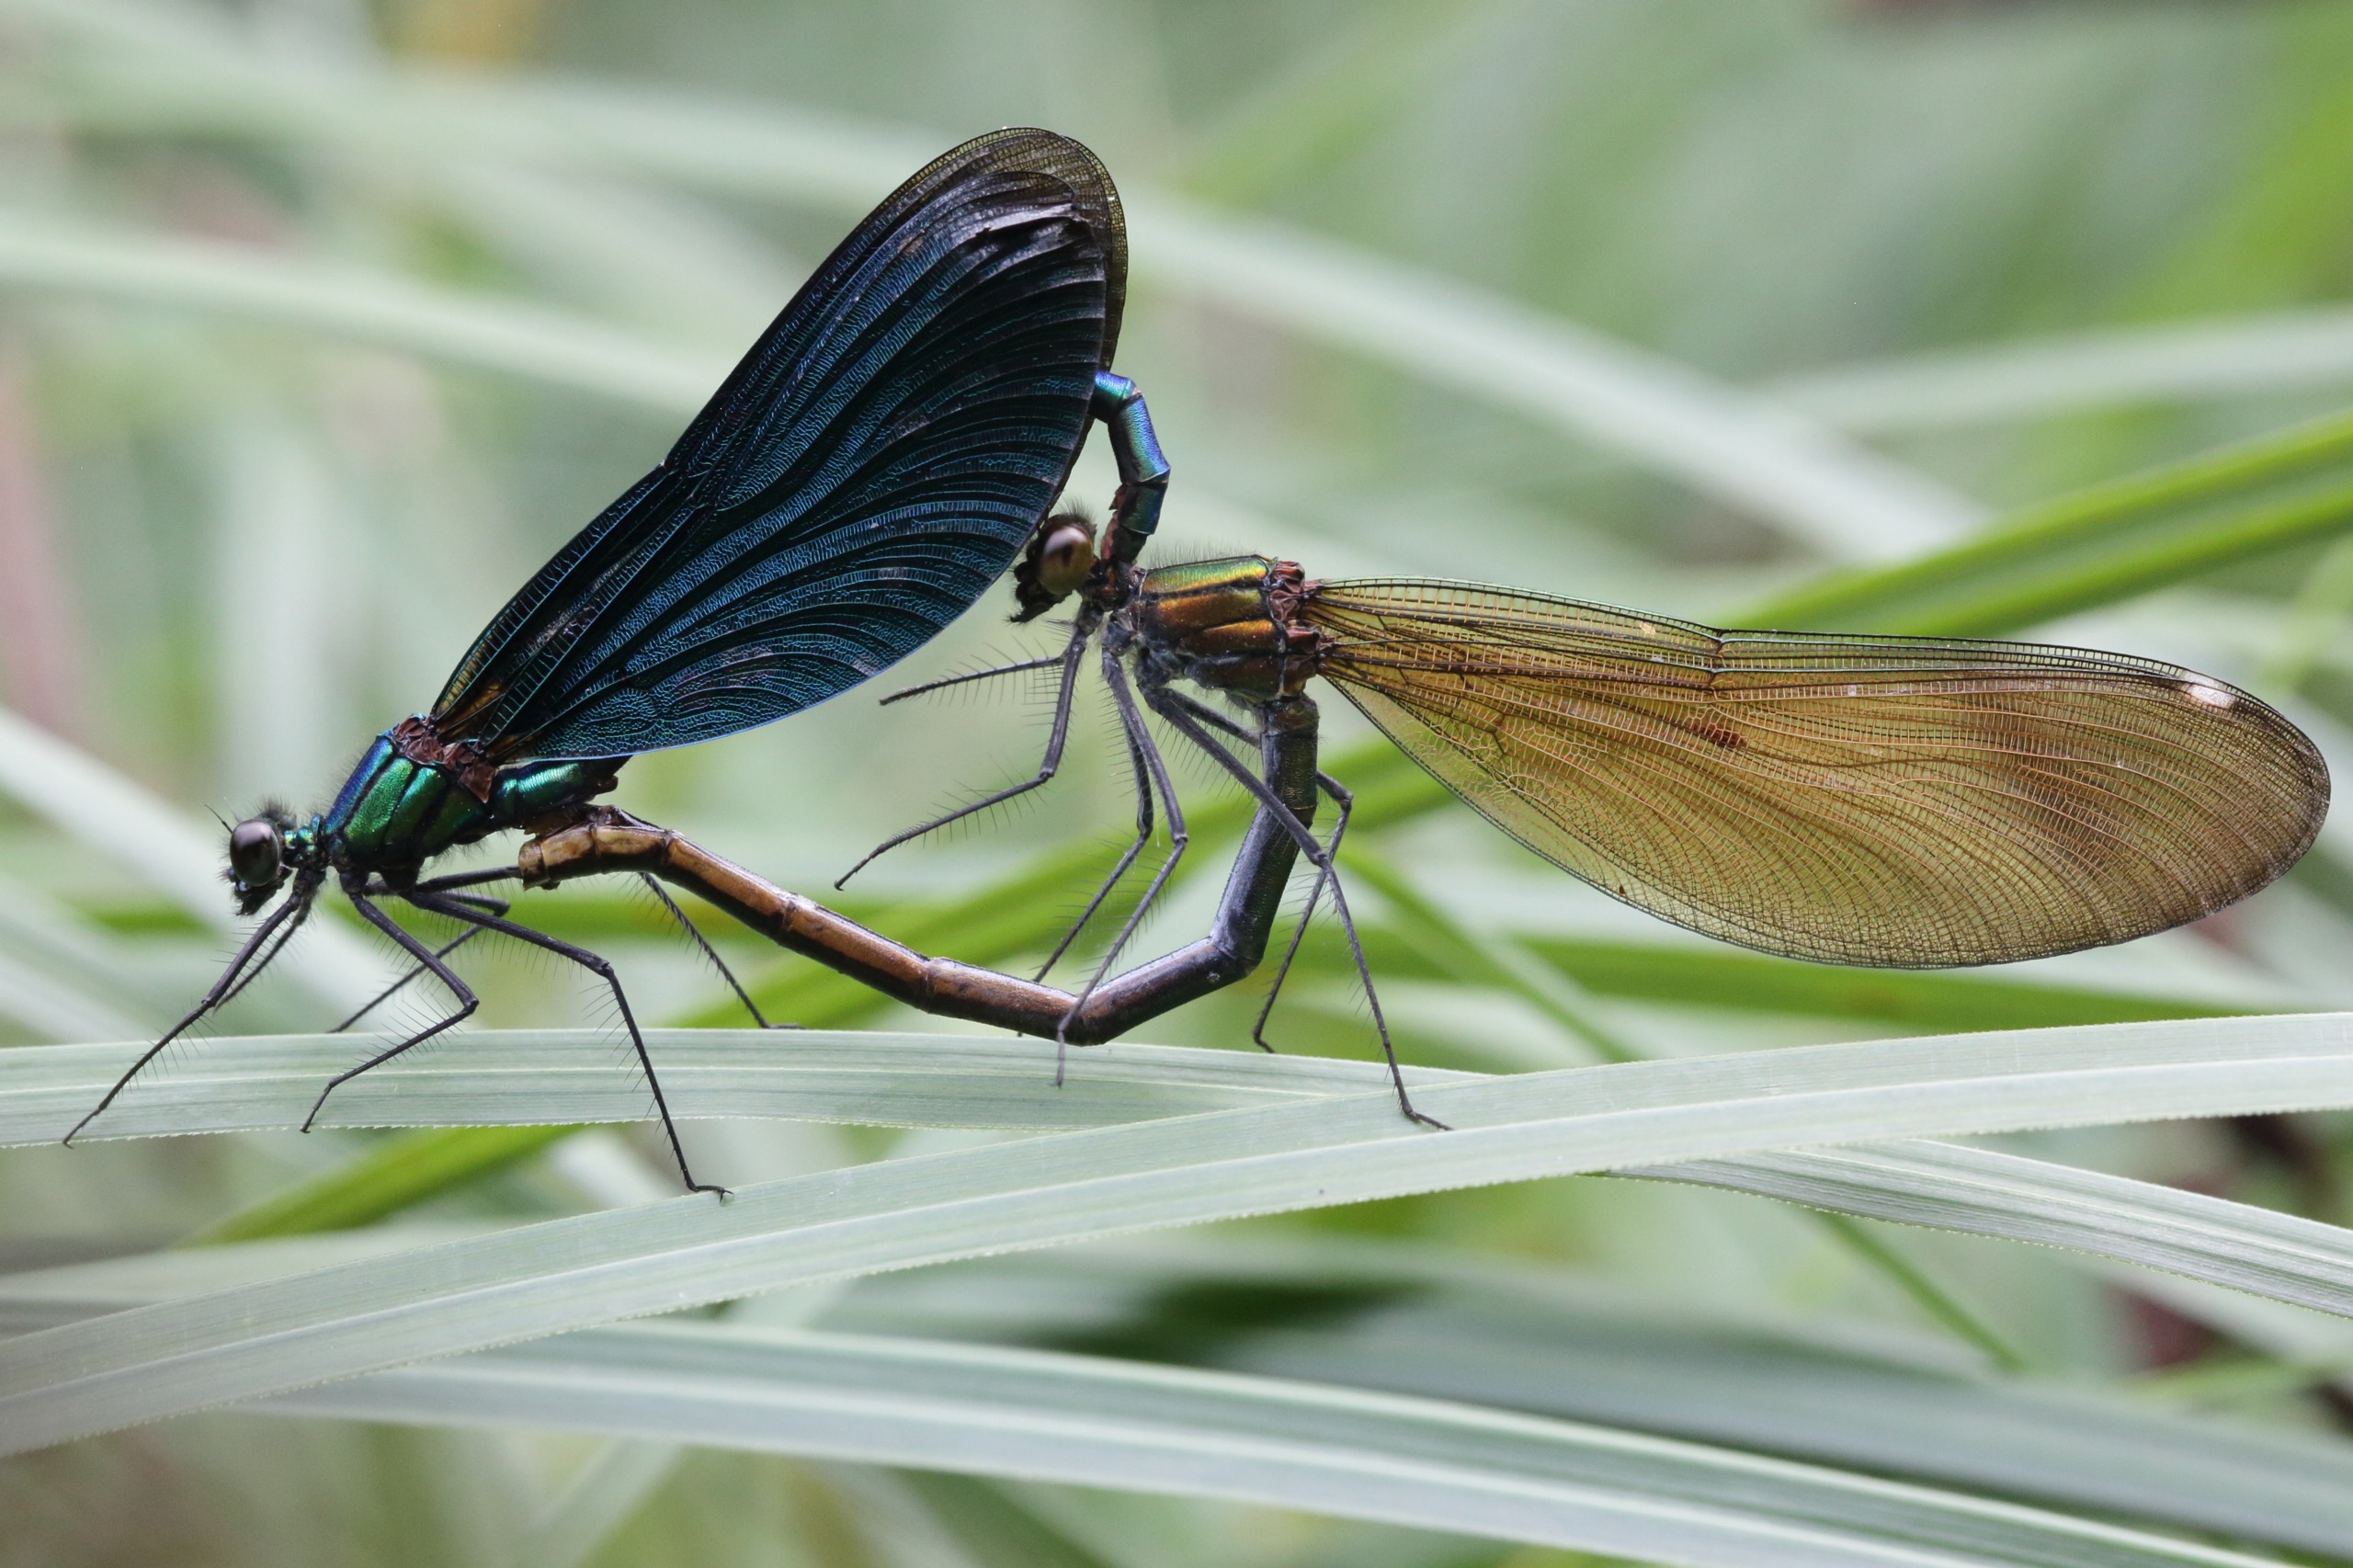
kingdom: Animalia
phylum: Arthropoda
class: Insecta
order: Odonata
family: Calopterygidae
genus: Calopteryx
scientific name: Calopteryx virgo
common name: Blåvinget pragtvandnymfe
